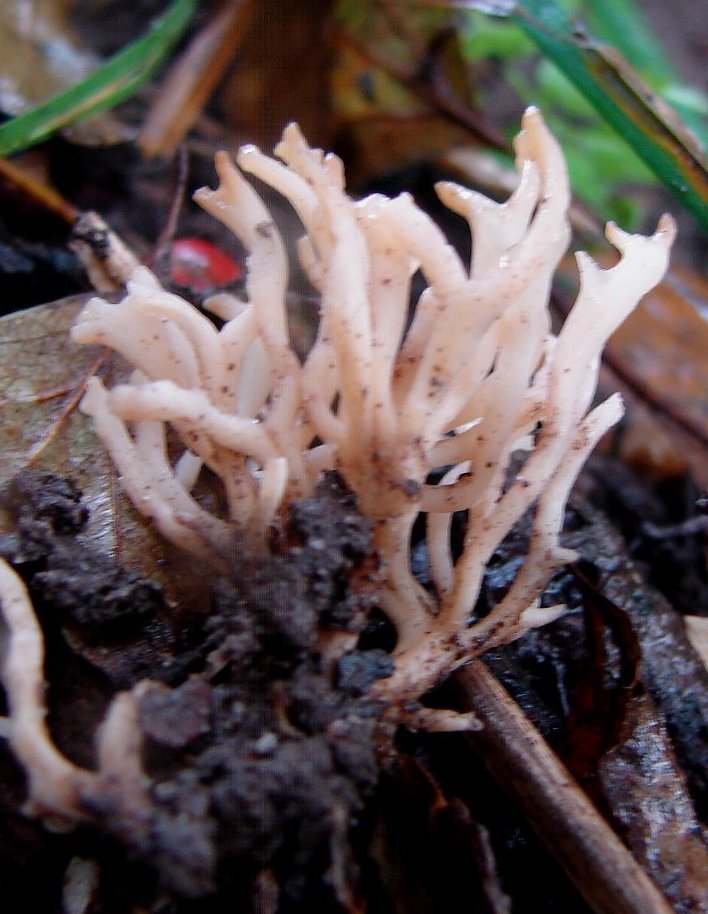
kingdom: Fungi
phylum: Basidiomycota
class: Agaricomycetes
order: Agaricales
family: Clavariaceae
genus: Clavulinopsis
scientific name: Clavulinopsis rufipes
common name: småsporet køllesvamp
